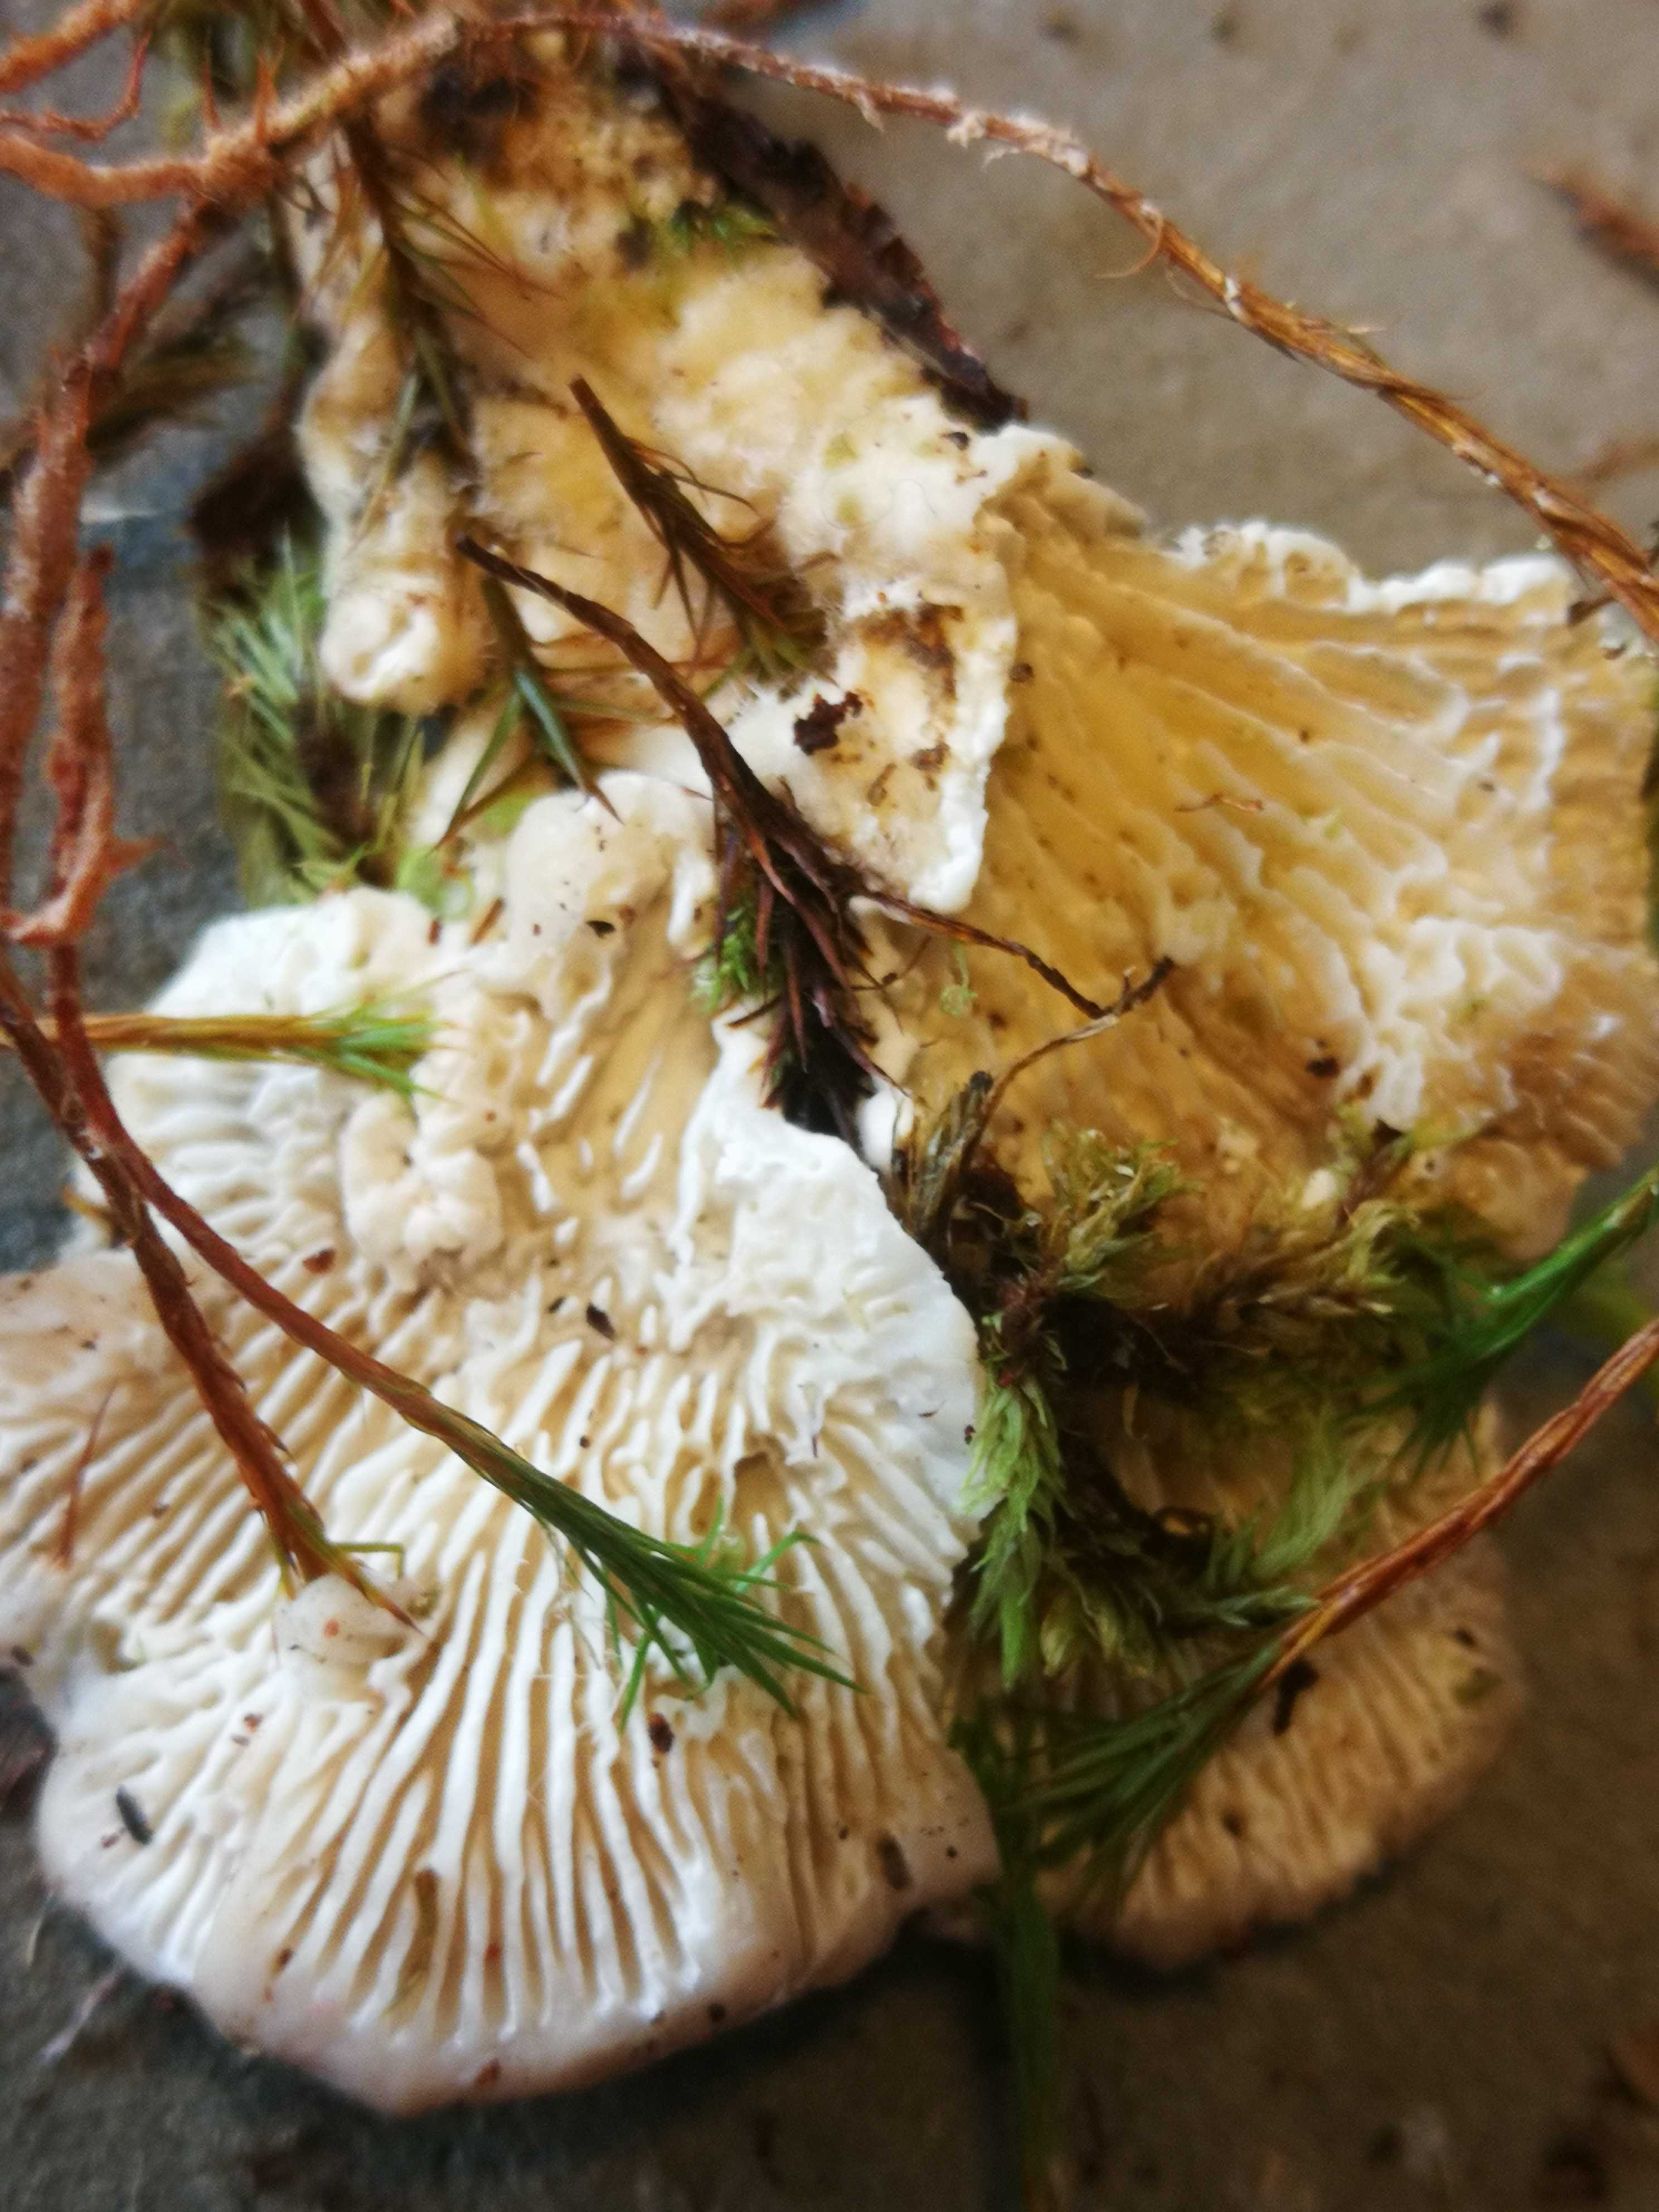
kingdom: Fungi
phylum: Basidiomycota
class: Agaricomycetes
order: Polyporales
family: Polyporaceae
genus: Lenzites
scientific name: Lenzites betulinus
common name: birke-læderporesvamp
